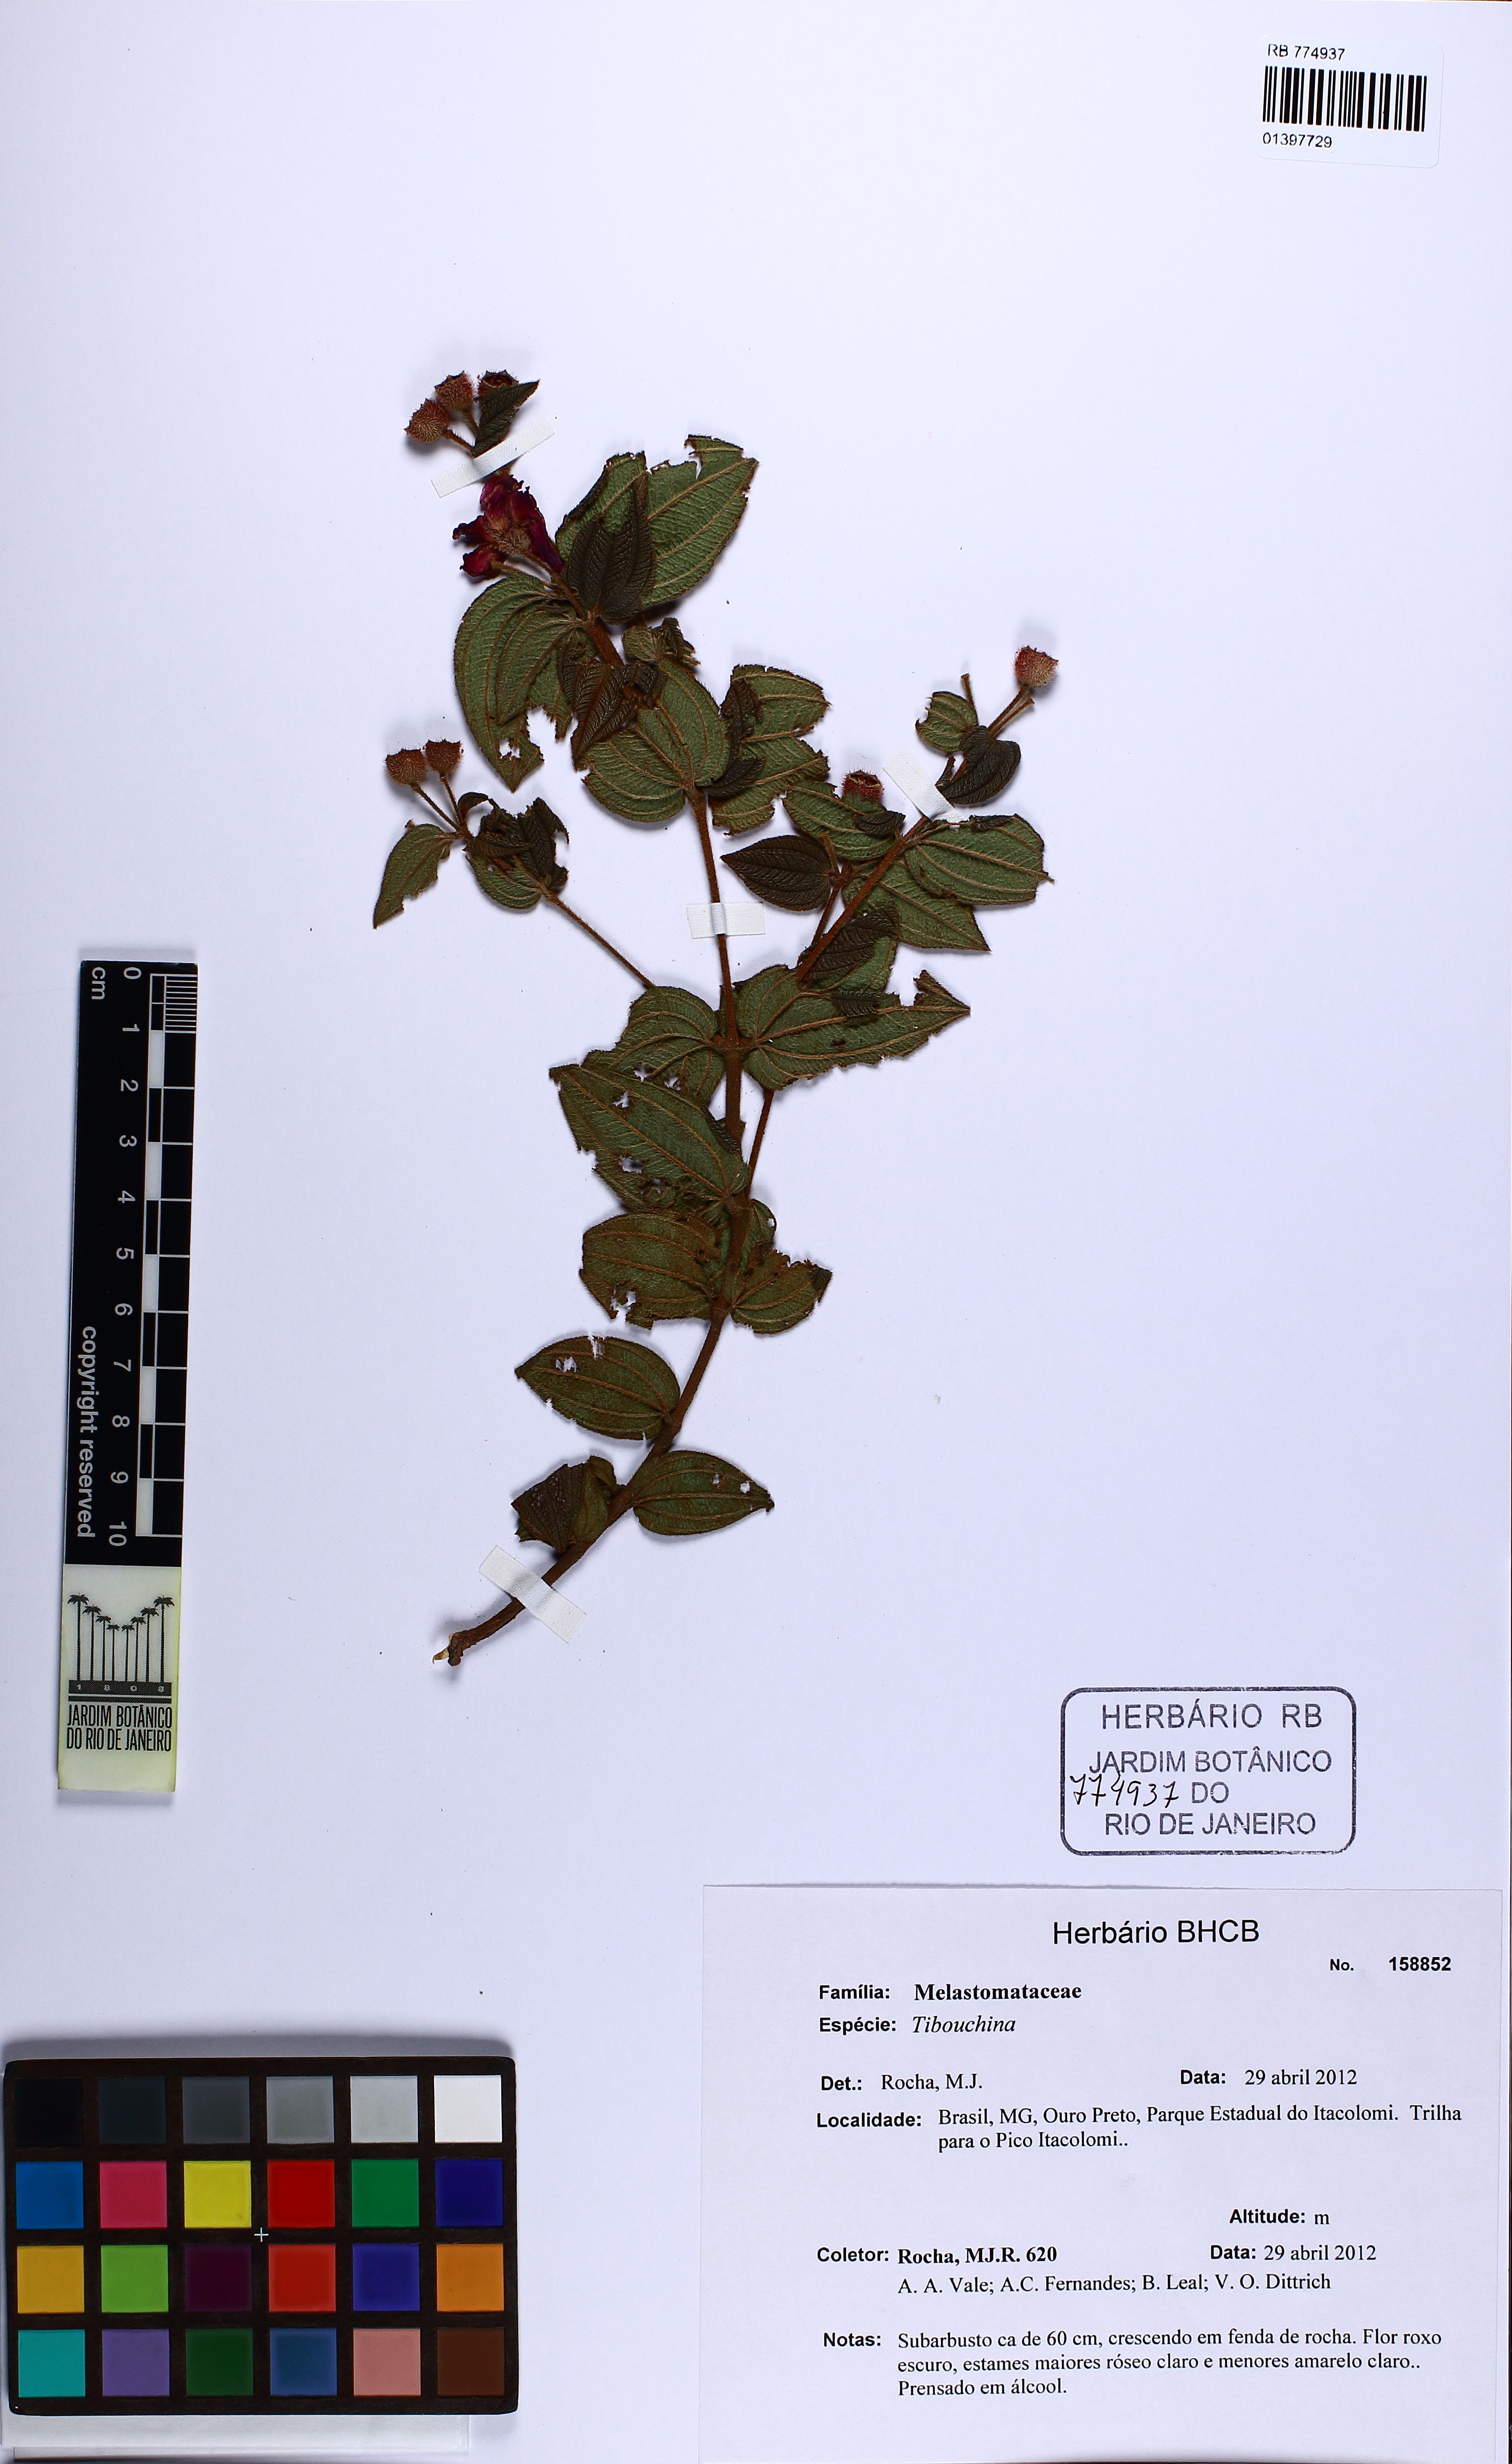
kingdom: Plantae
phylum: Tracheophyta
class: Magnoliopsida
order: Myrtales
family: Melastomataceae
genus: Tibouchina
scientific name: Tibouchina
